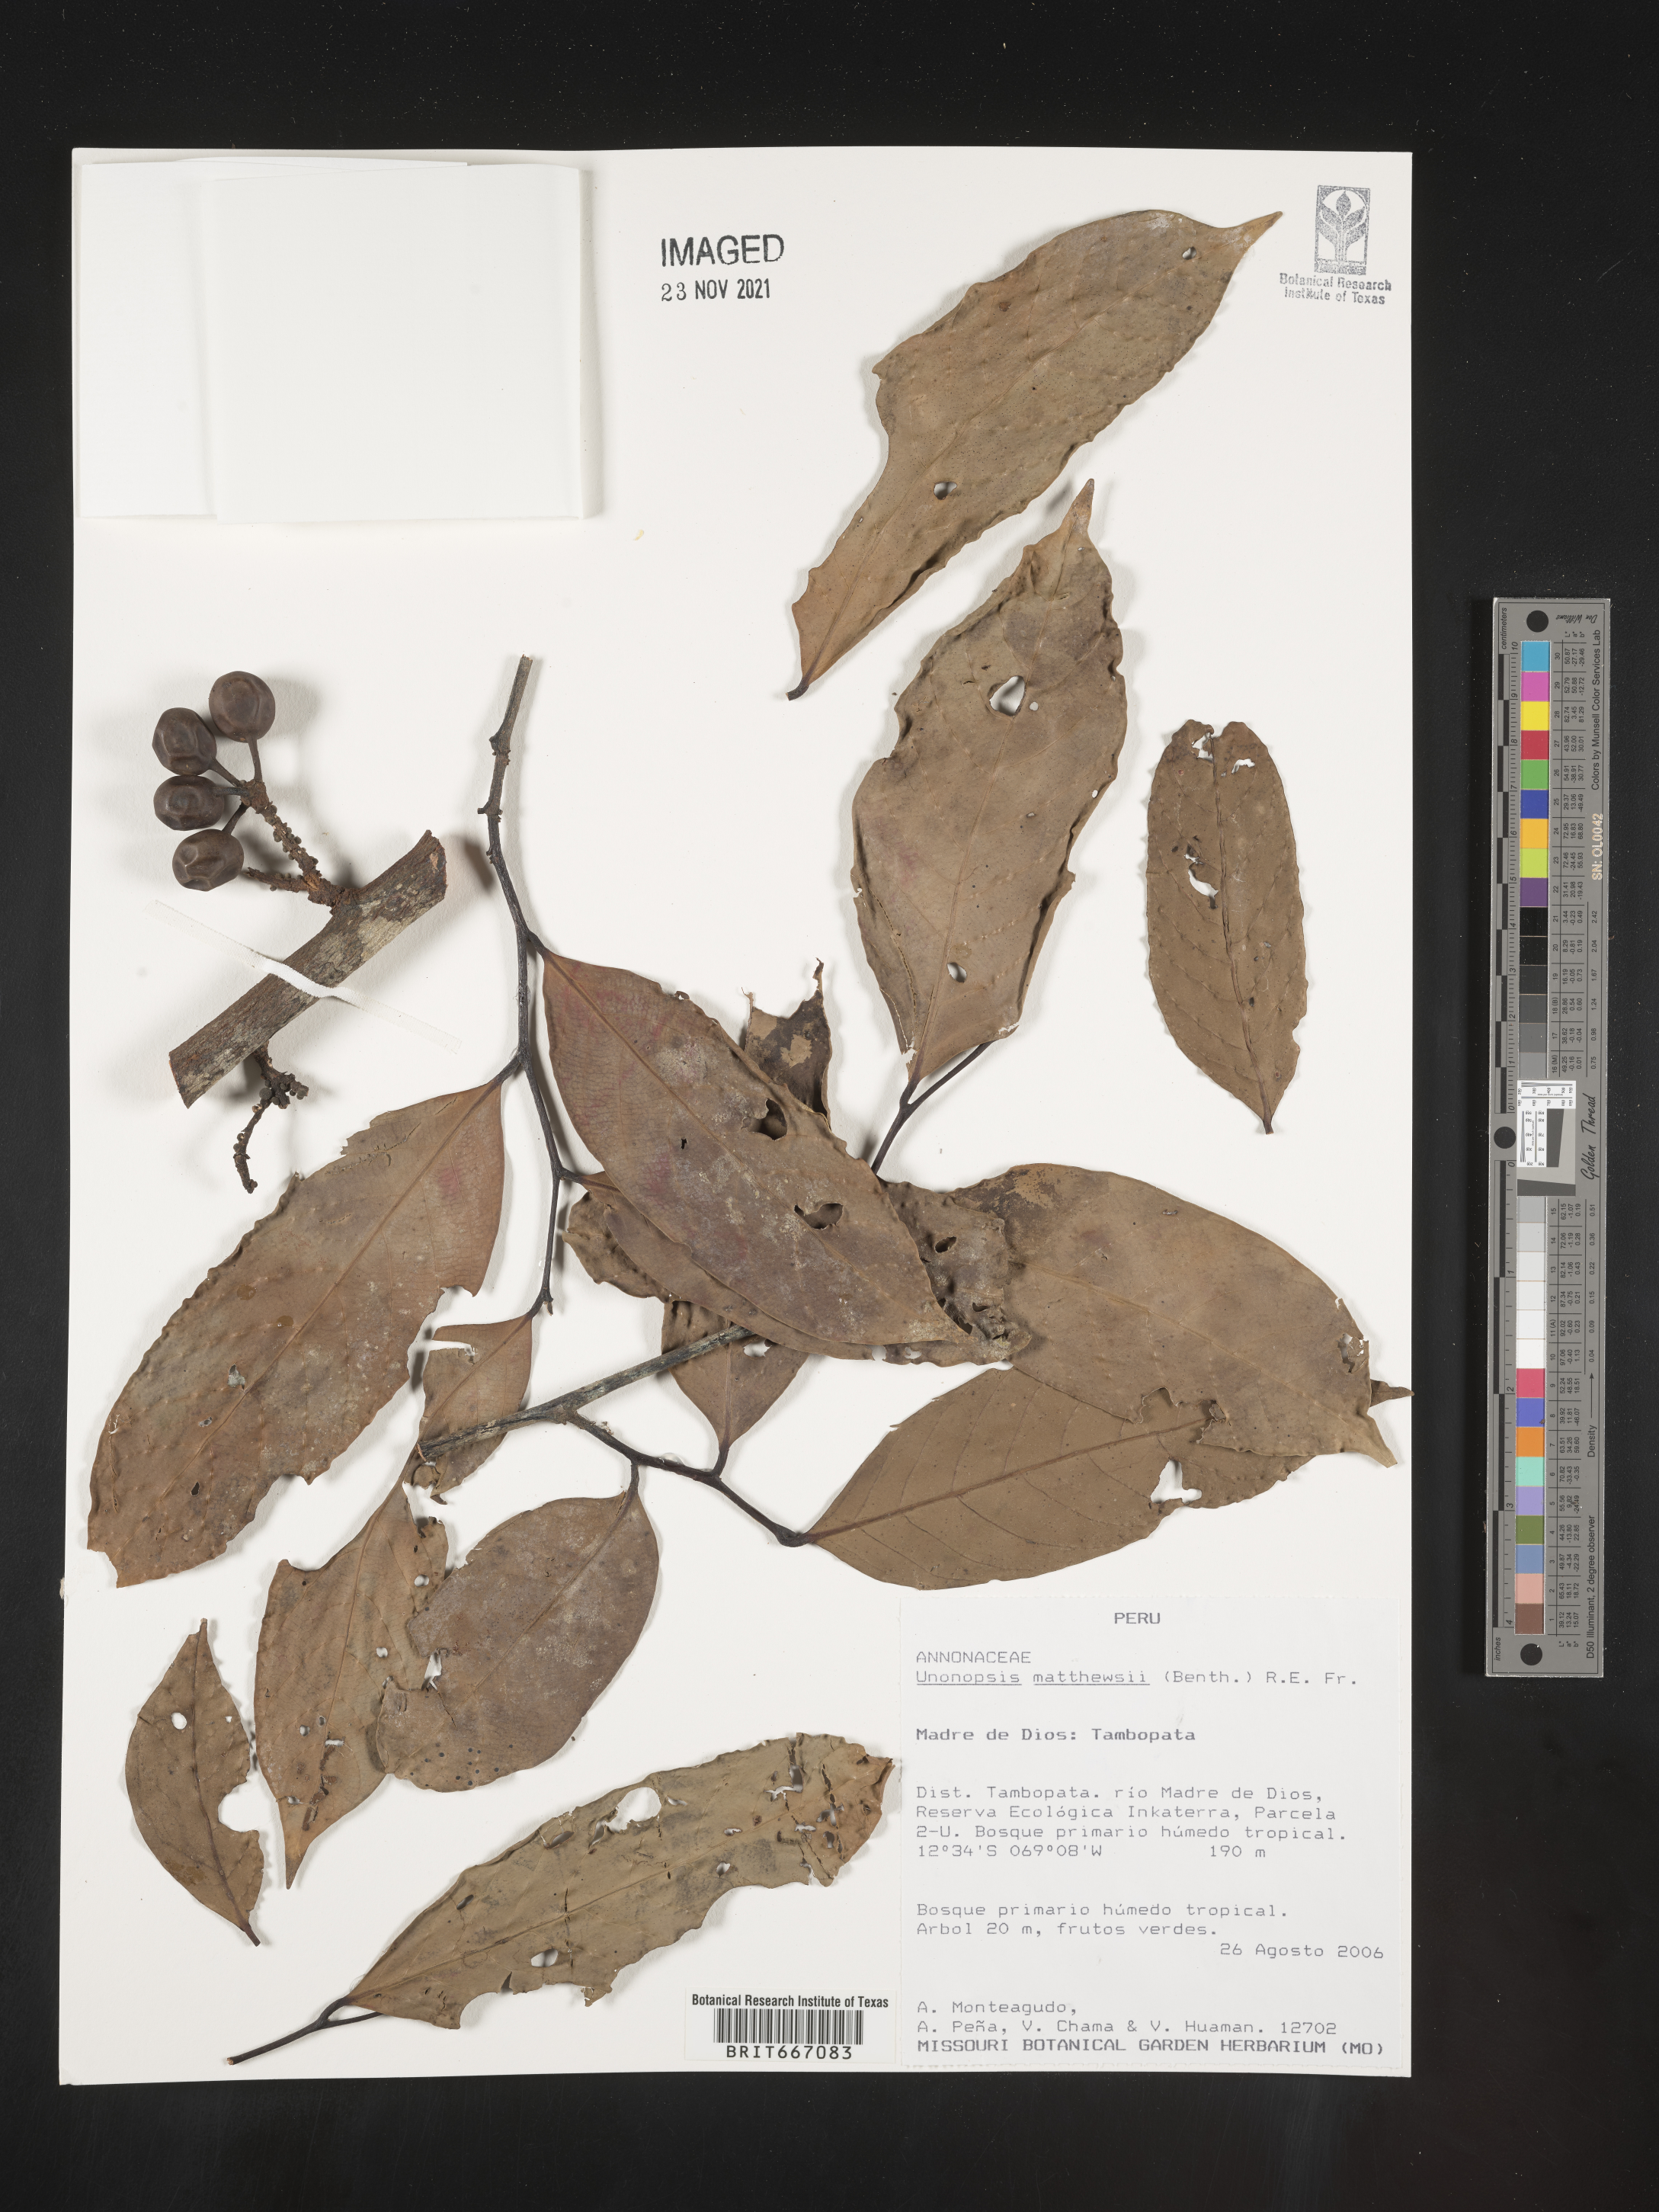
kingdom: Plantae
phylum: Tracheophyta
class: Magnoliopsida
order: Magnoliales
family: Annonaceae
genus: Unonopsis
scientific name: Unonopsis
